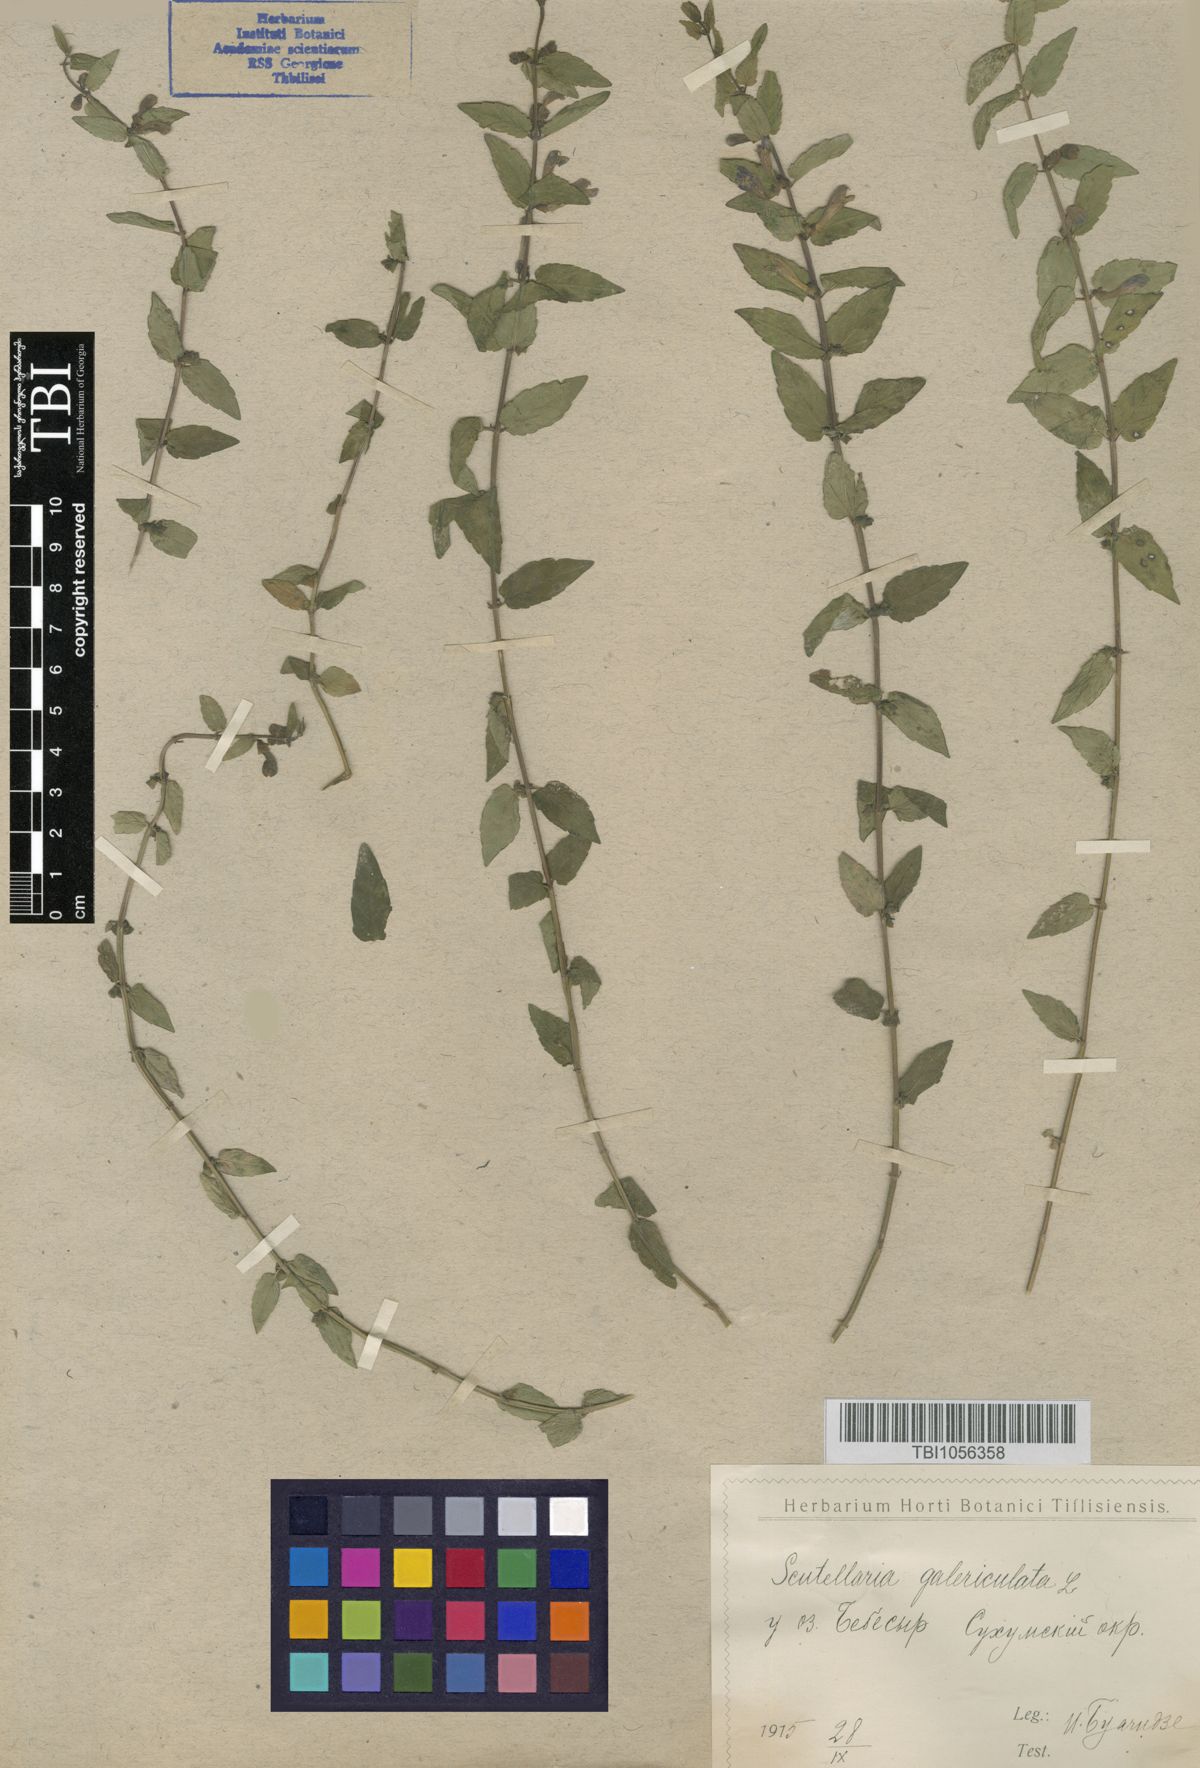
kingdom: Plantae
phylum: Tracheophyta
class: Magnoliopsida
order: Lamiales
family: Lamiaceae
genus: Scutellaria
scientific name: Scutellaria galericulata
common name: Skullcap
